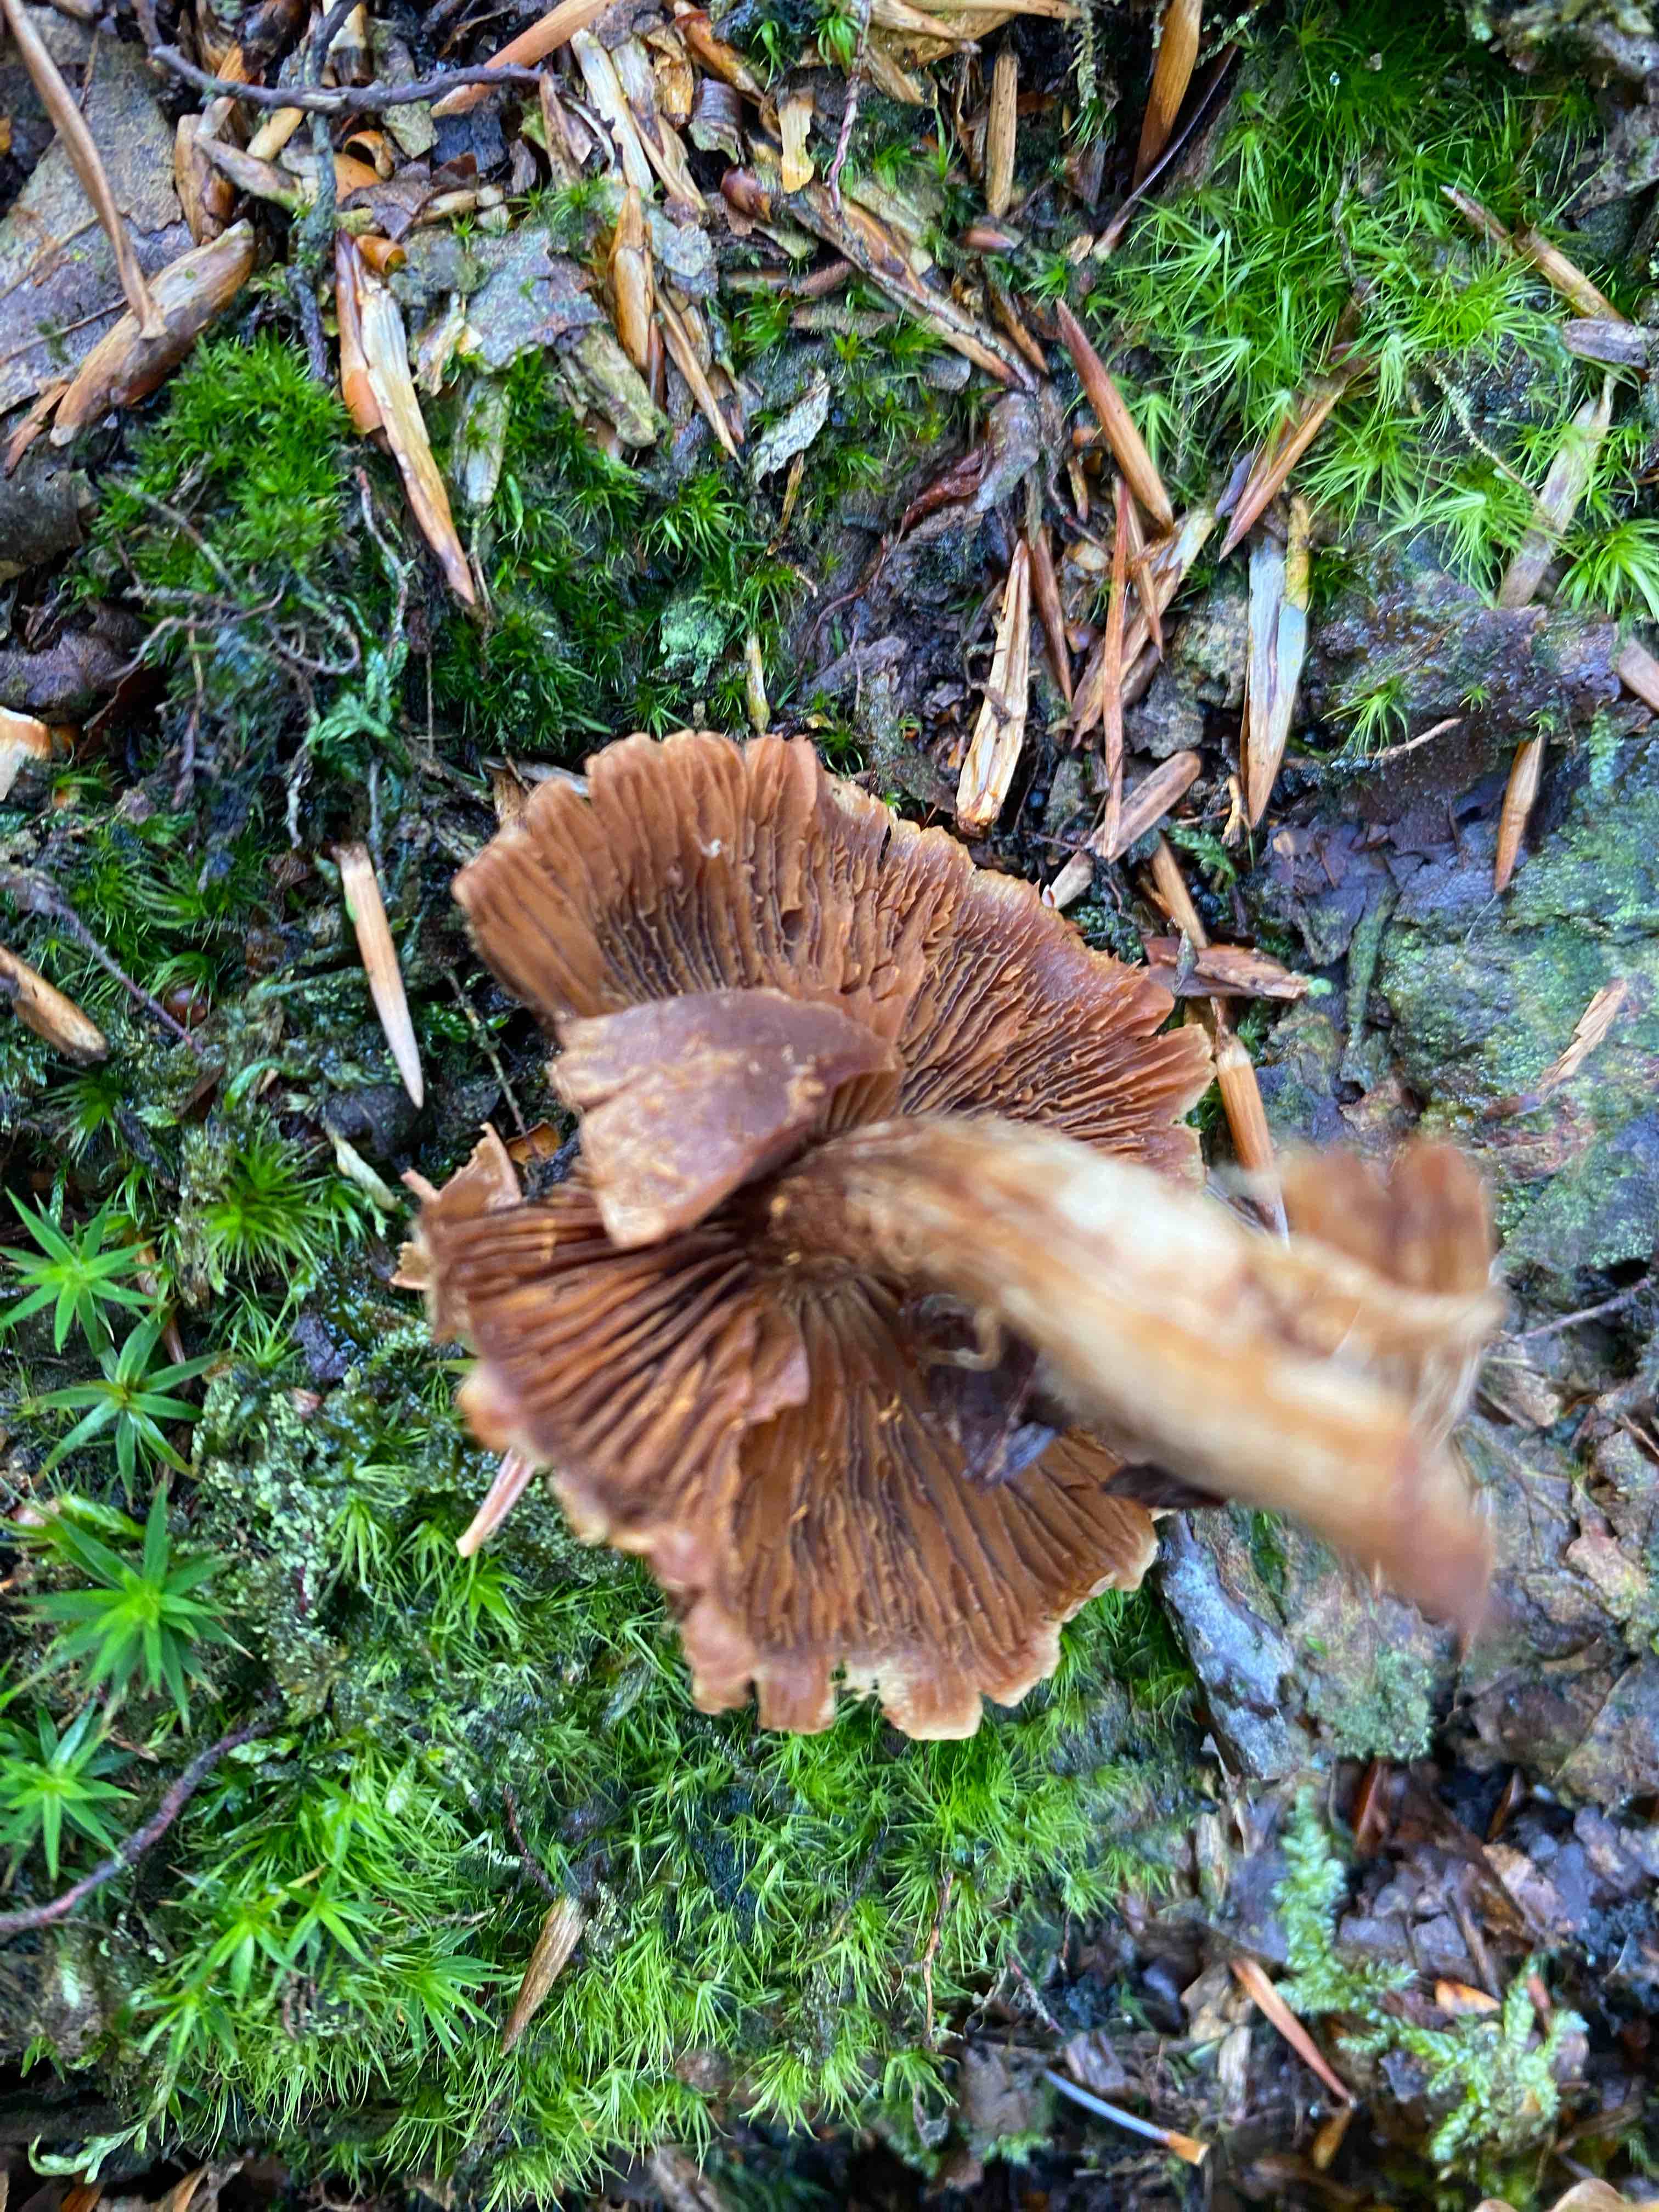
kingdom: Fungi
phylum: Basidiomycota
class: Agaricomycetes
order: Agaricales
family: Cortinariaceae
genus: Cortinarius
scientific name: Cortinarius
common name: pelargonie-slørhat
